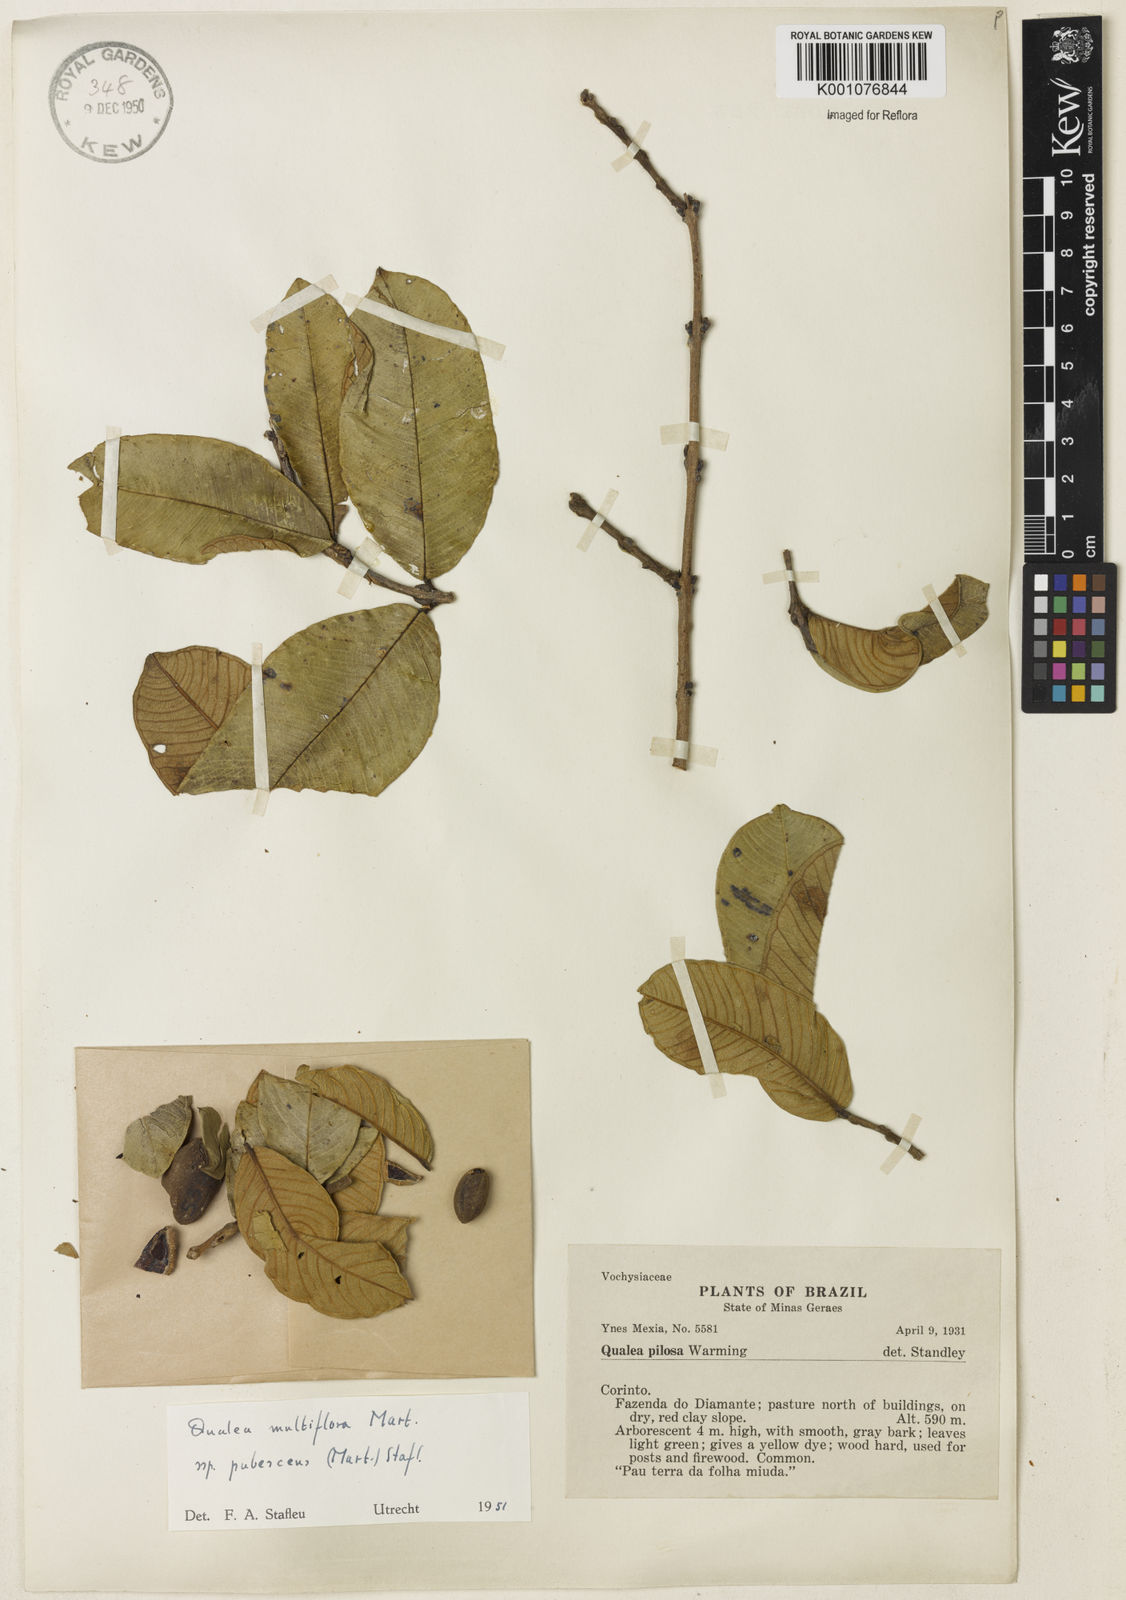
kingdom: Plantae
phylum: Tracheophyta
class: Magnoliopsida
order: Myrtales
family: Vochysiaceae
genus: Qualea
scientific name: Qualea multiflora
